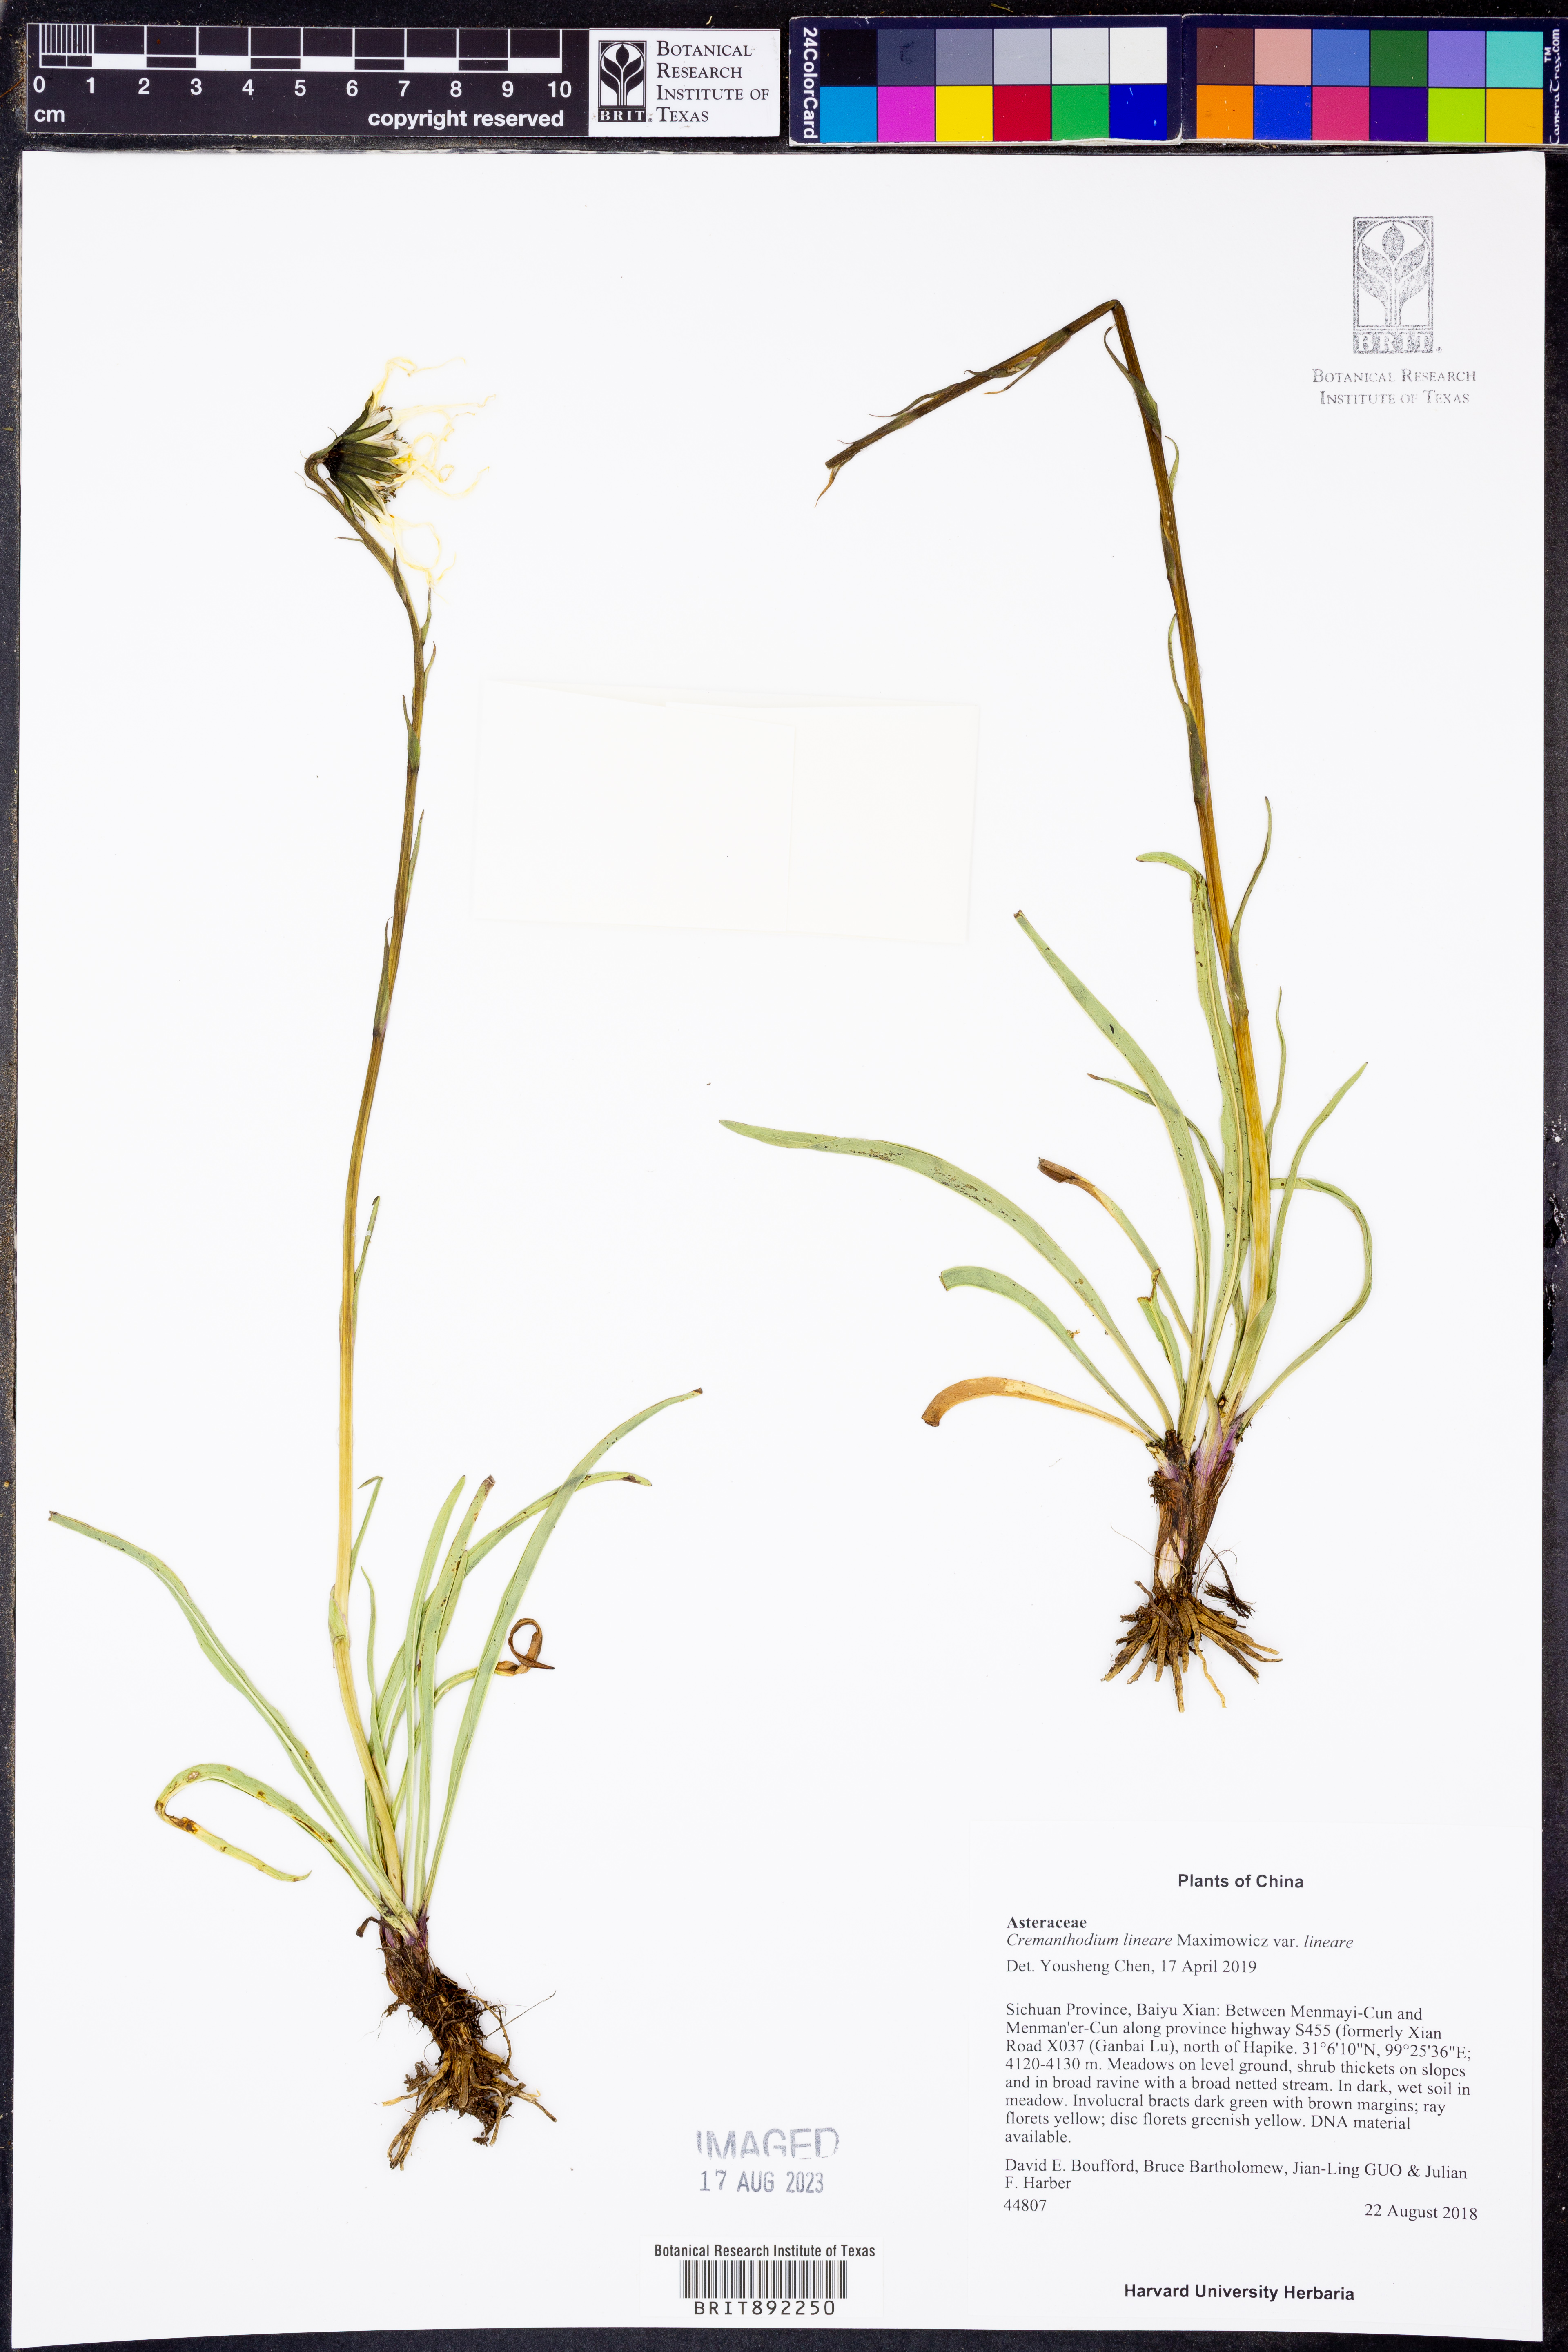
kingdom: Plantae
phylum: Tracheophyta
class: Magnoliopsida
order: Asterales
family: Asteraceae
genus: Cremanthodium
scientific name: Cremanthodium lineare
